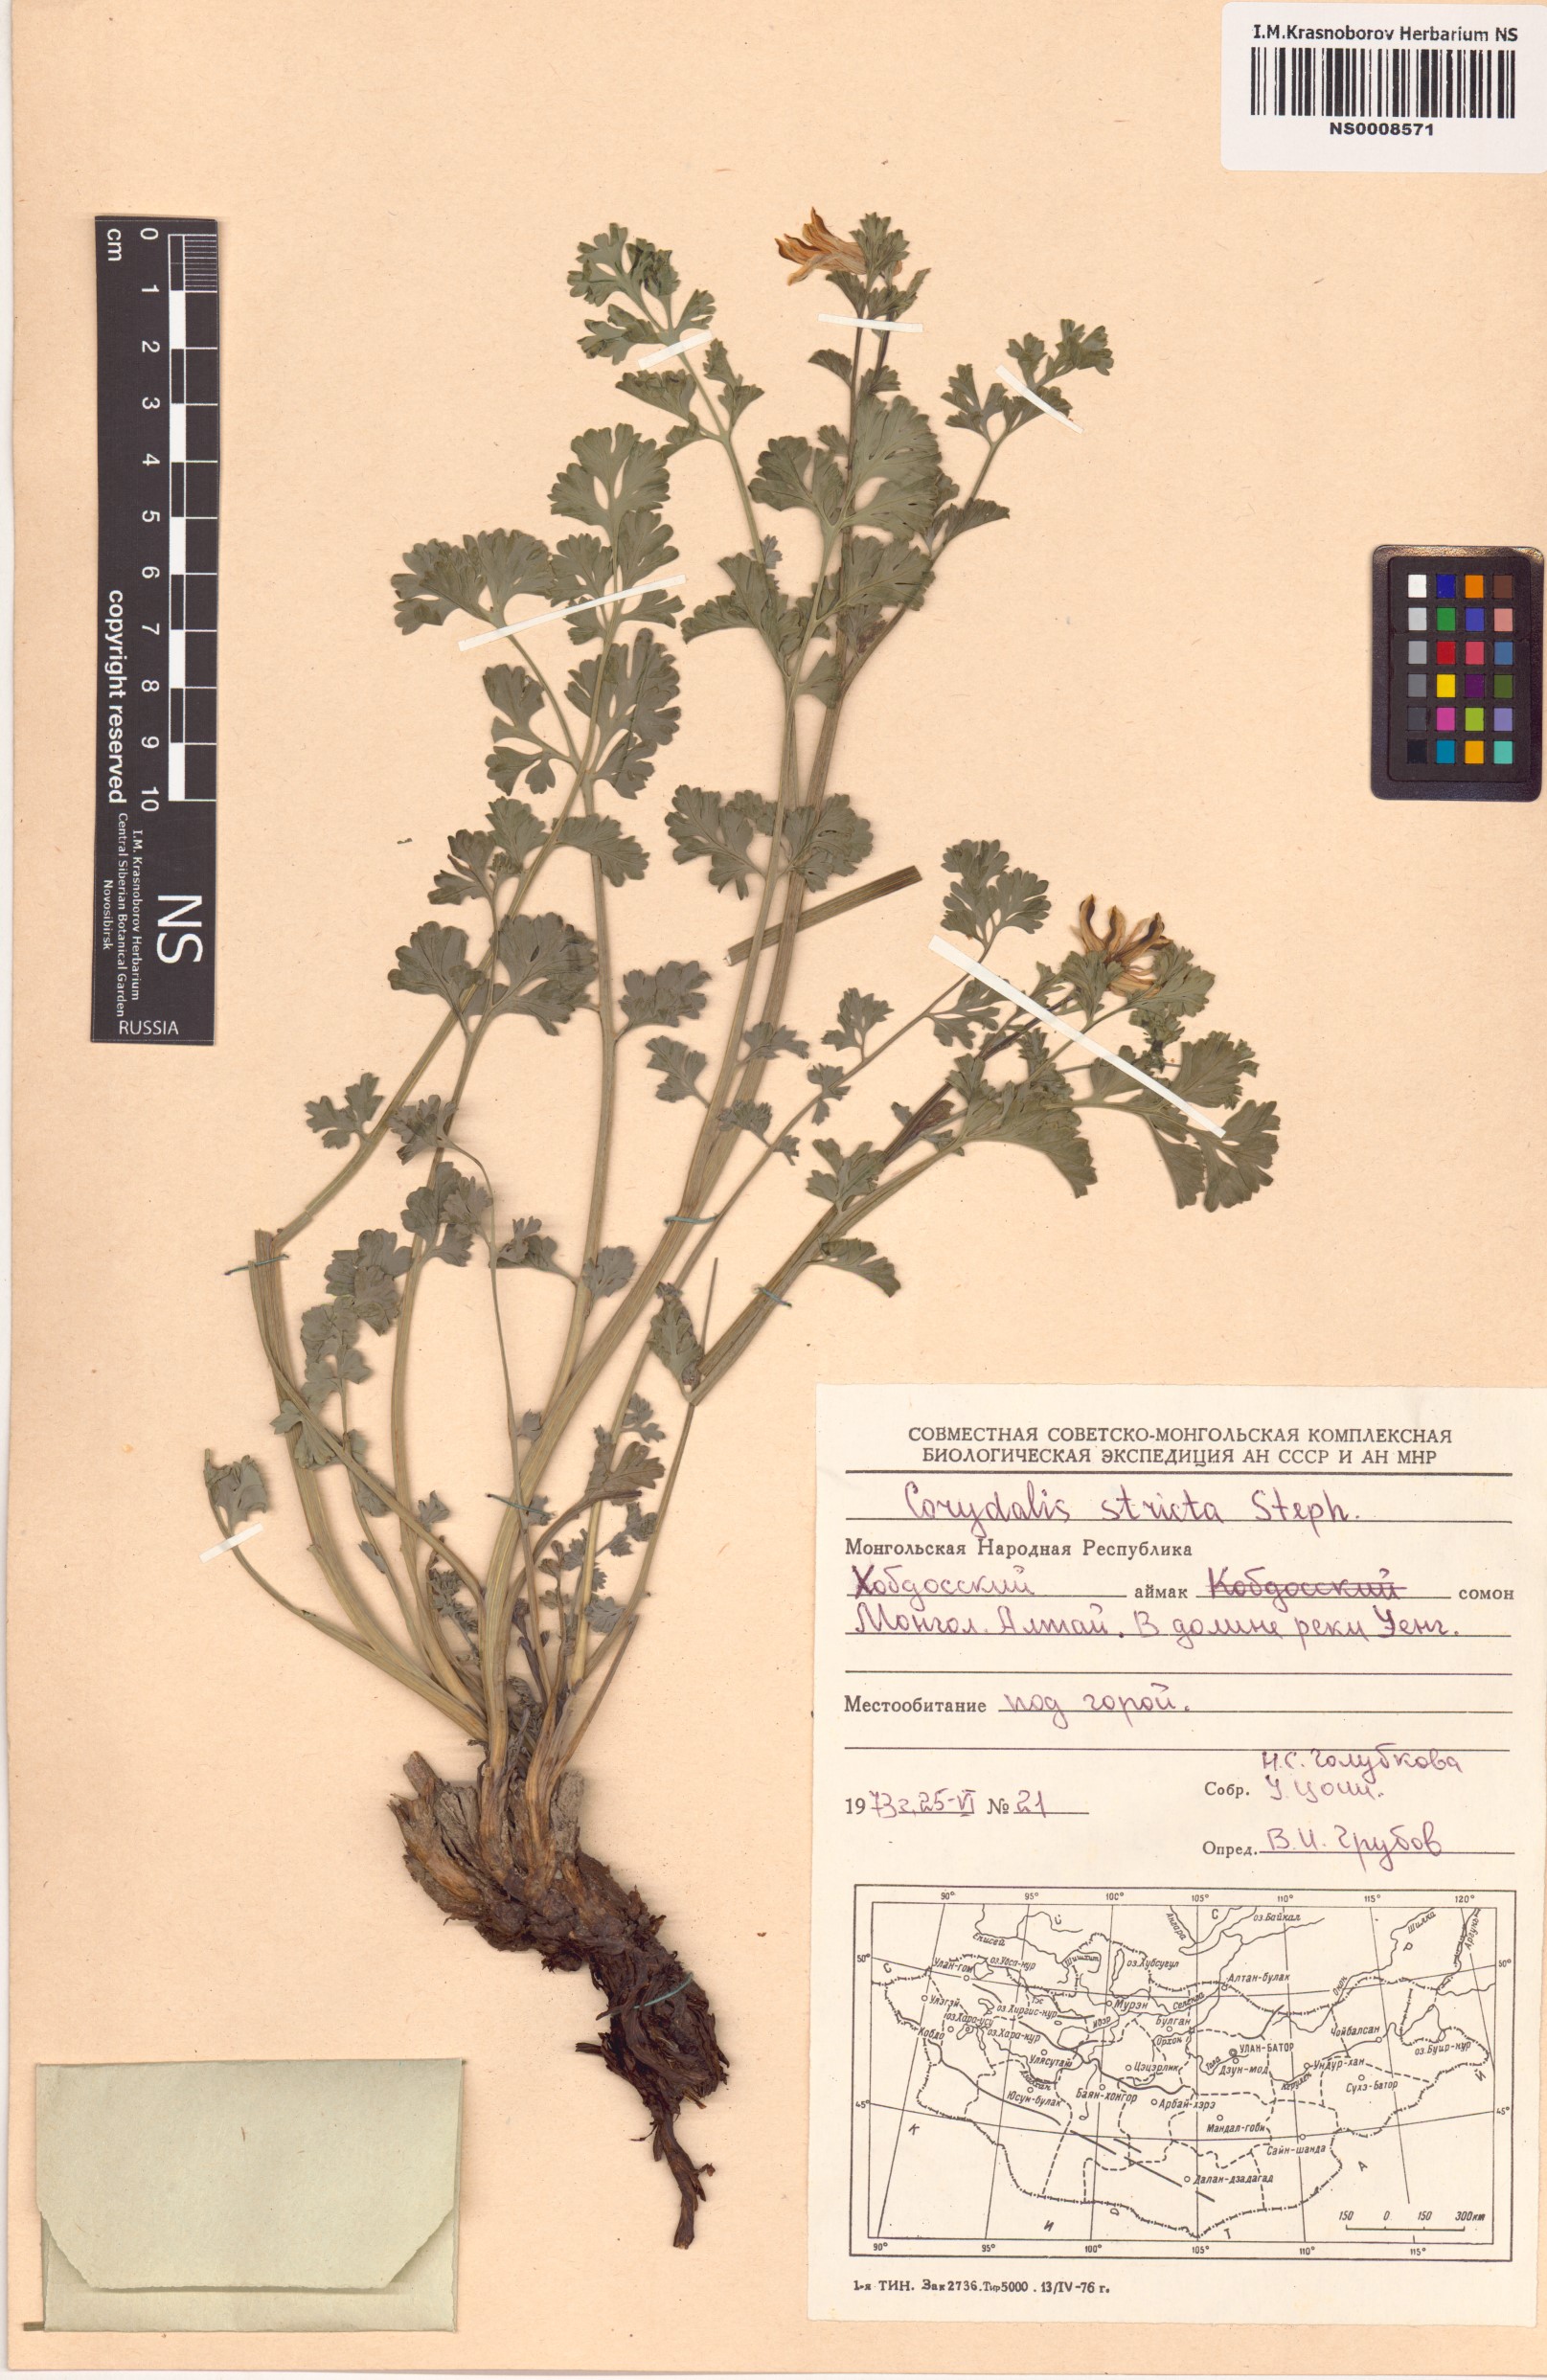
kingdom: Plantae
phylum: Tracheophyta
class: Magnoliopsida
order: Ranunculales
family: Papaveraceae
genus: Corydalis
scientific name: Corydalis stricta
